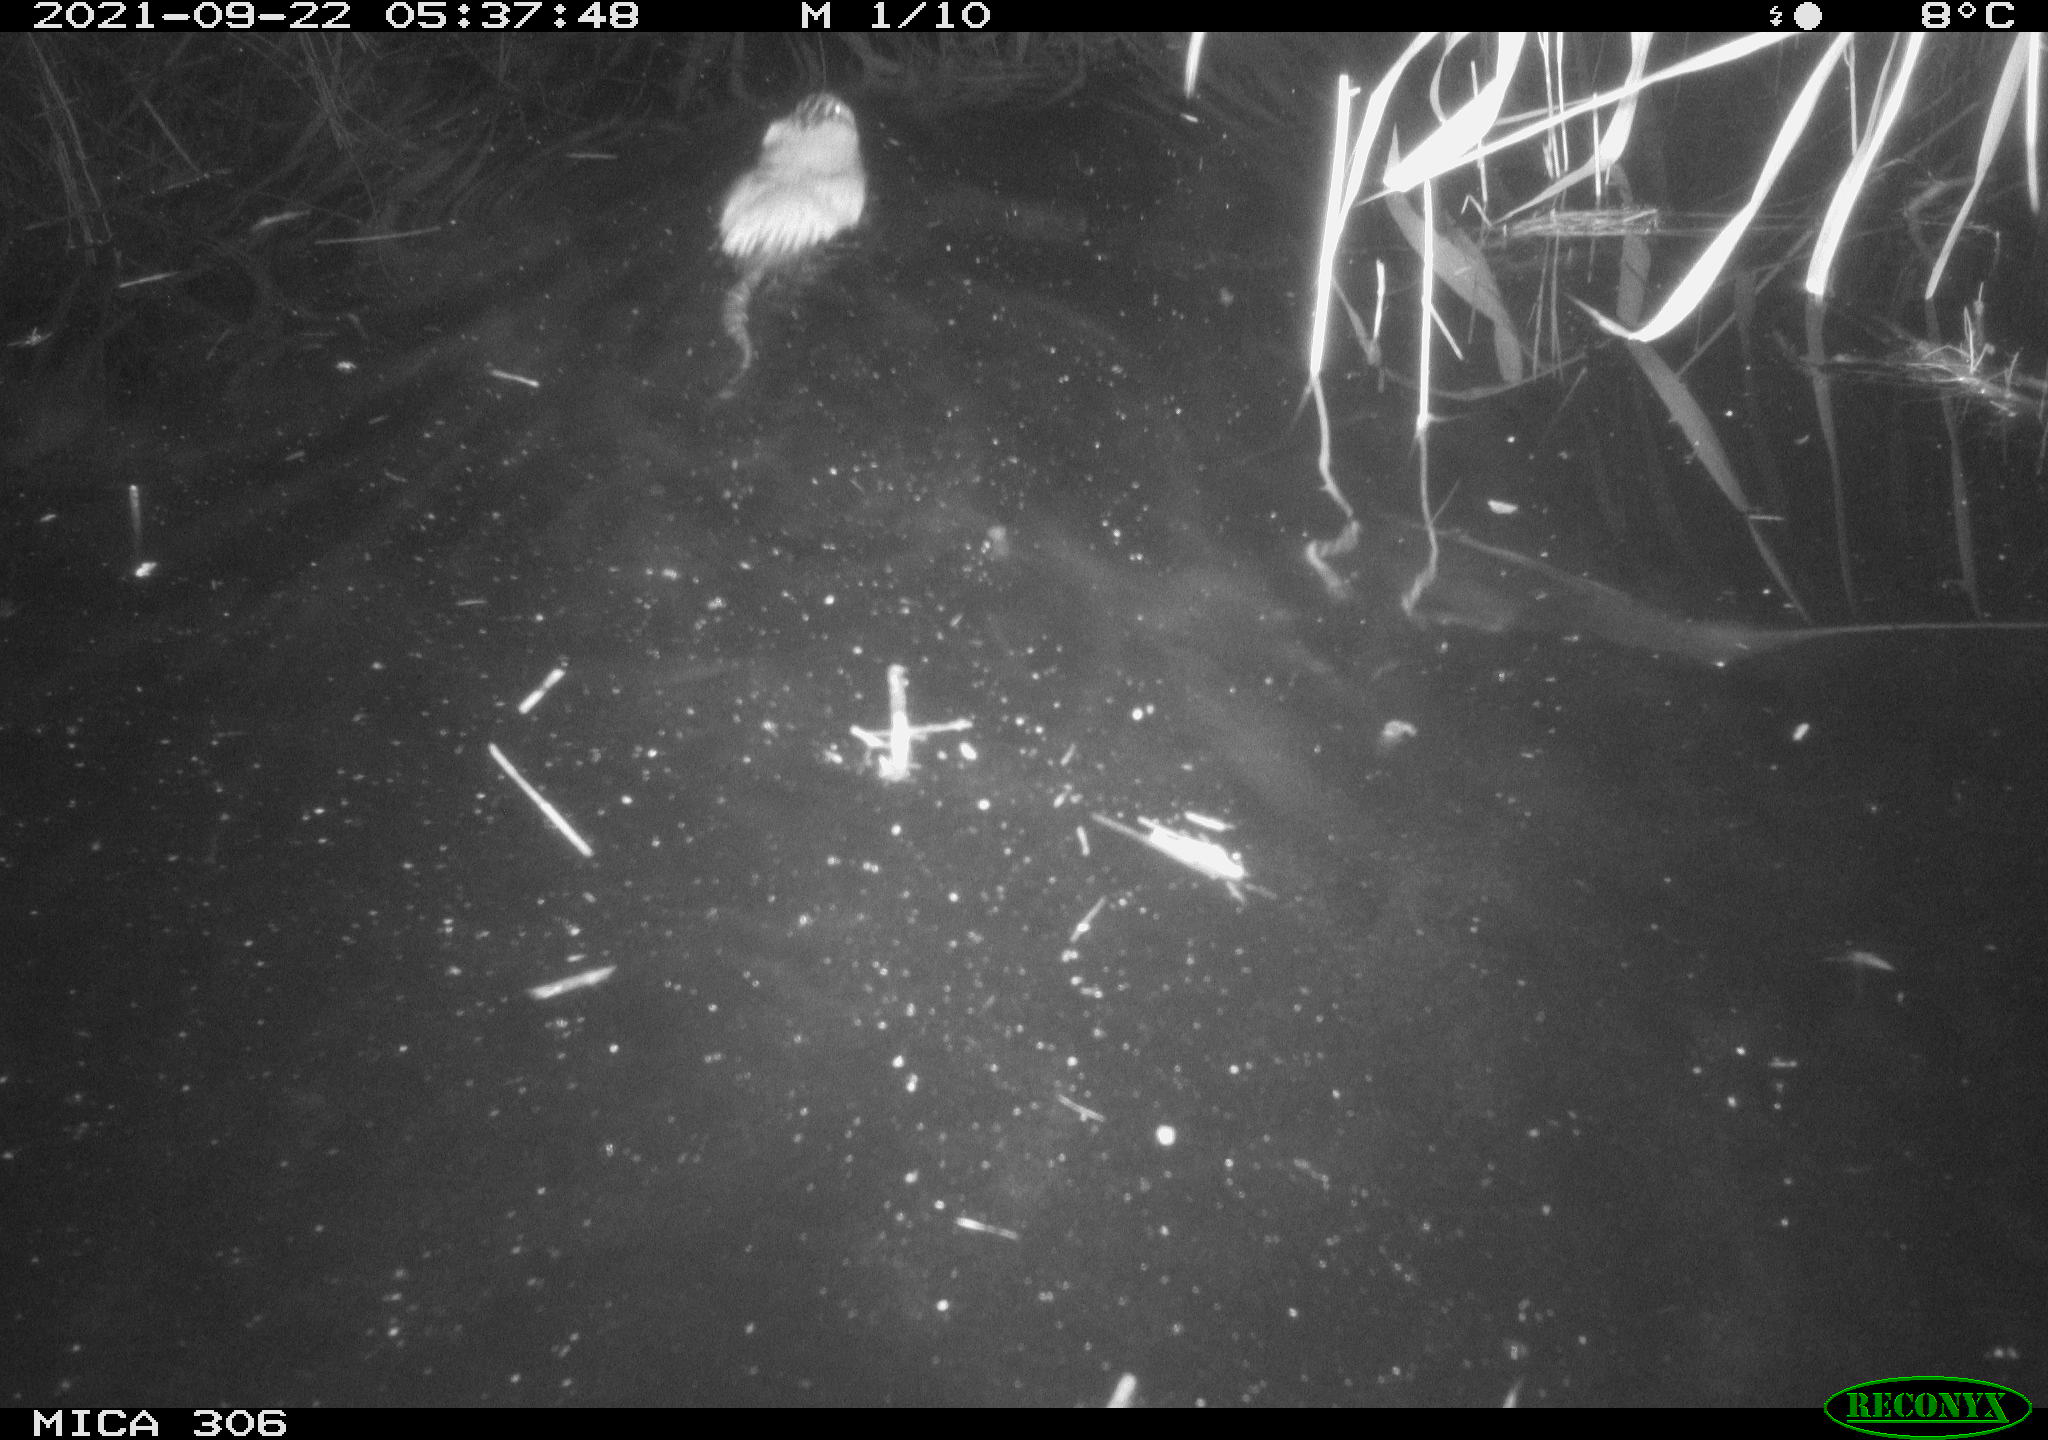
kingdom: Animalia
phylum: Chordata
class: Mammalia
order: Rodentia
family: Cricetidae
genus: Ondatra
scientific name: Ondatra zibethicus
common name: Muskrat
